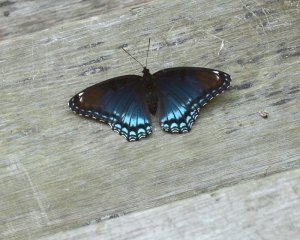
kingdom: Animalia
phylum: Arthropoda
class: Insecta
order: Lepidoptera
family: Nymphalidae
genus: Limenitis
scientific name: Limenitis astyanax
